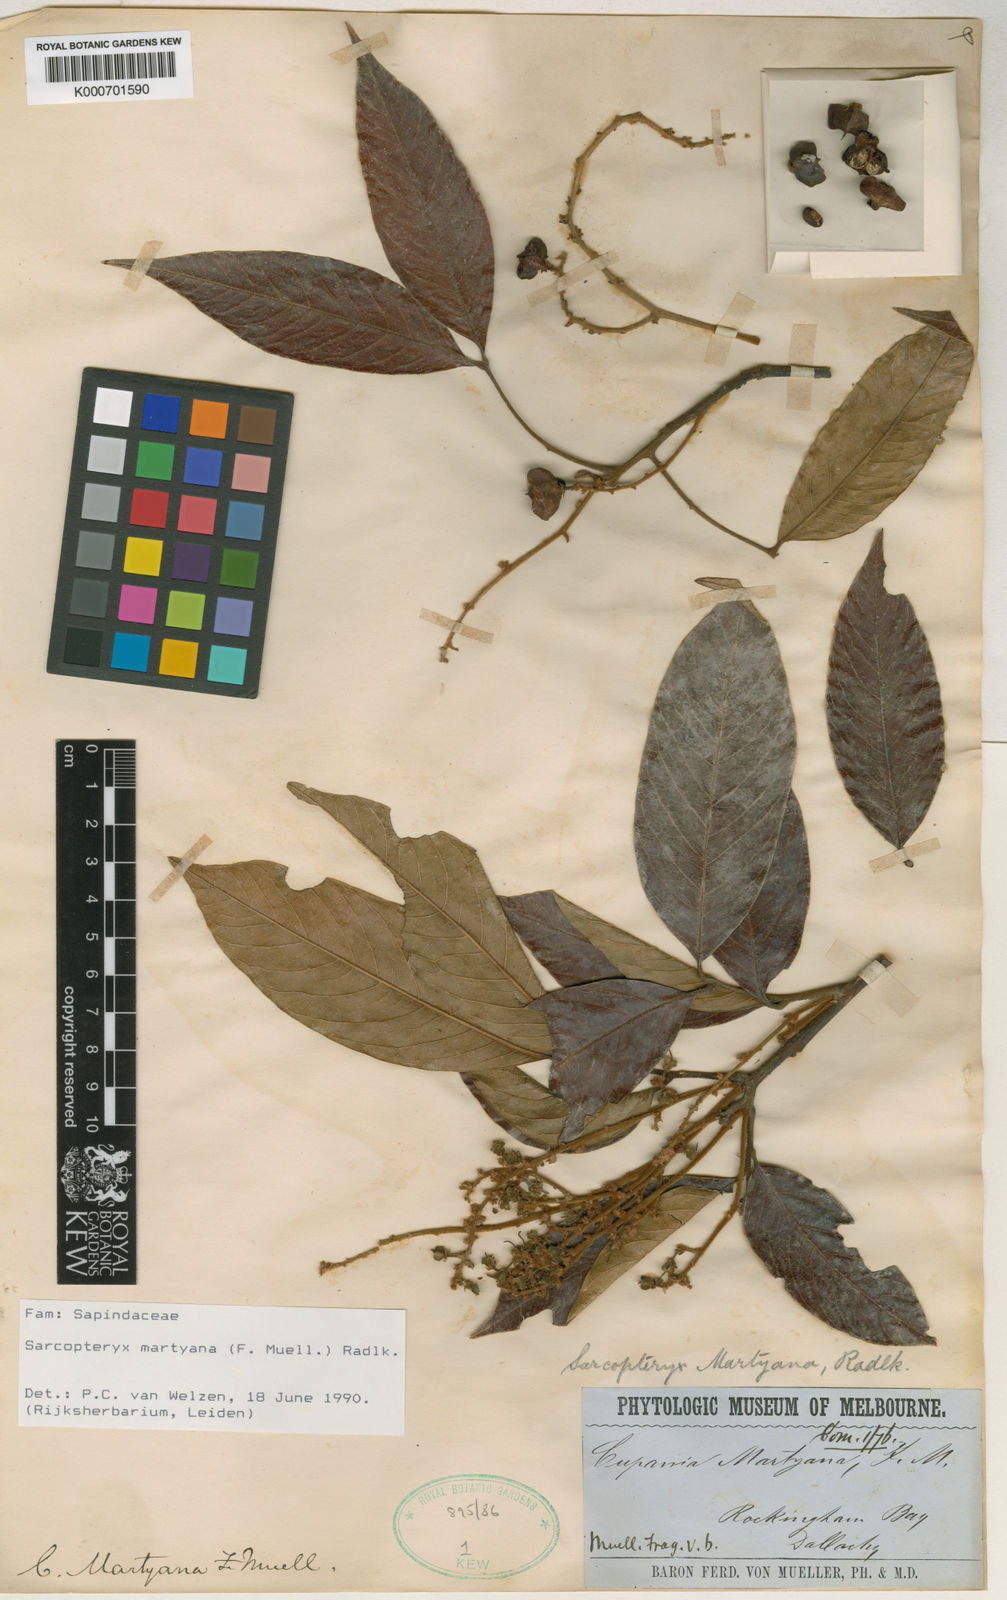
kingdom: Plantae
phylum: Tracheophyta
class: Magnoliopsida
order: Sapindales
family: Sapindaceae
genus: Sarcopteryx
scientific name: Sarcopteryx martyana
